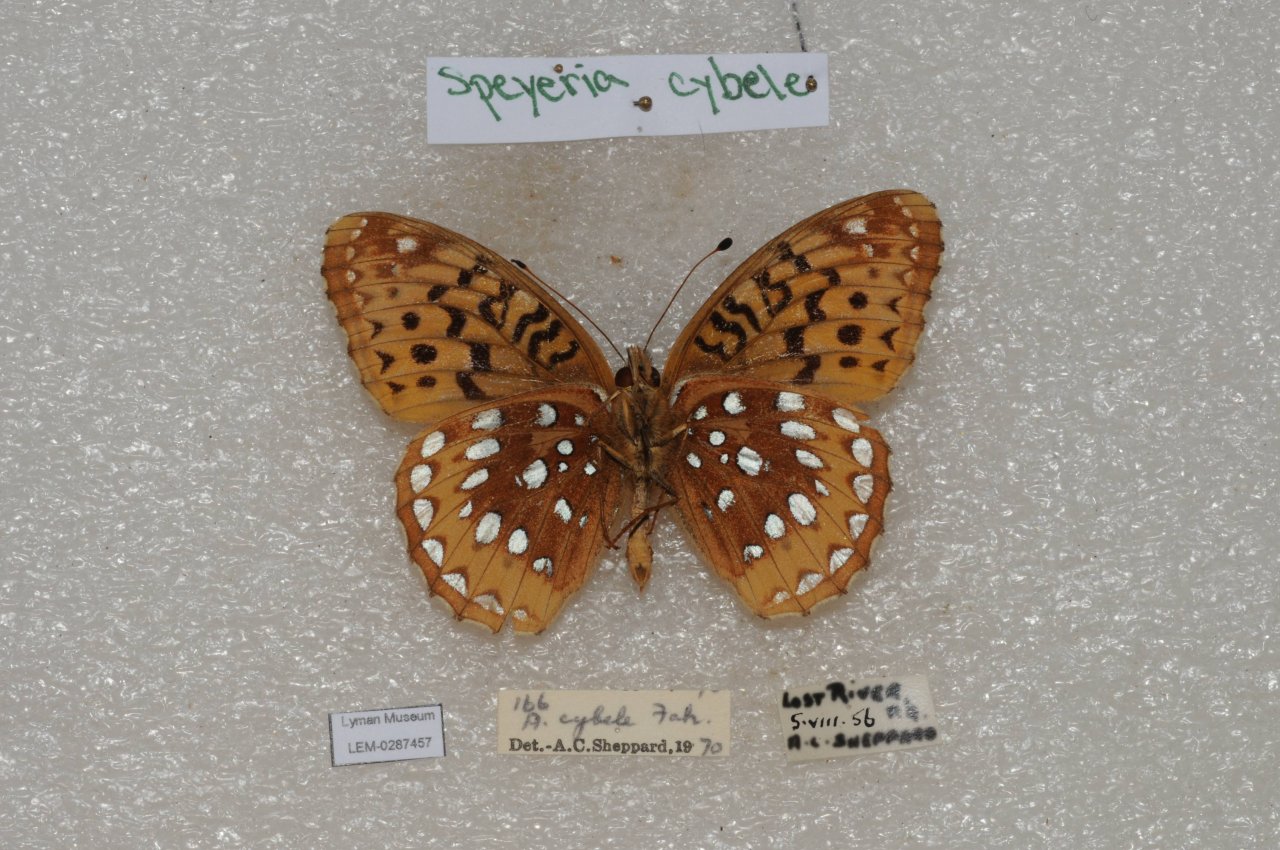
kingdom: Animalia
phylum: Arthropoda
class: Insecta
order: Lepidoptera
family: Nymphalidae
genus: Speyeria
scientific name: Speyeria cybele
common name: Great Spangled Fritillary
